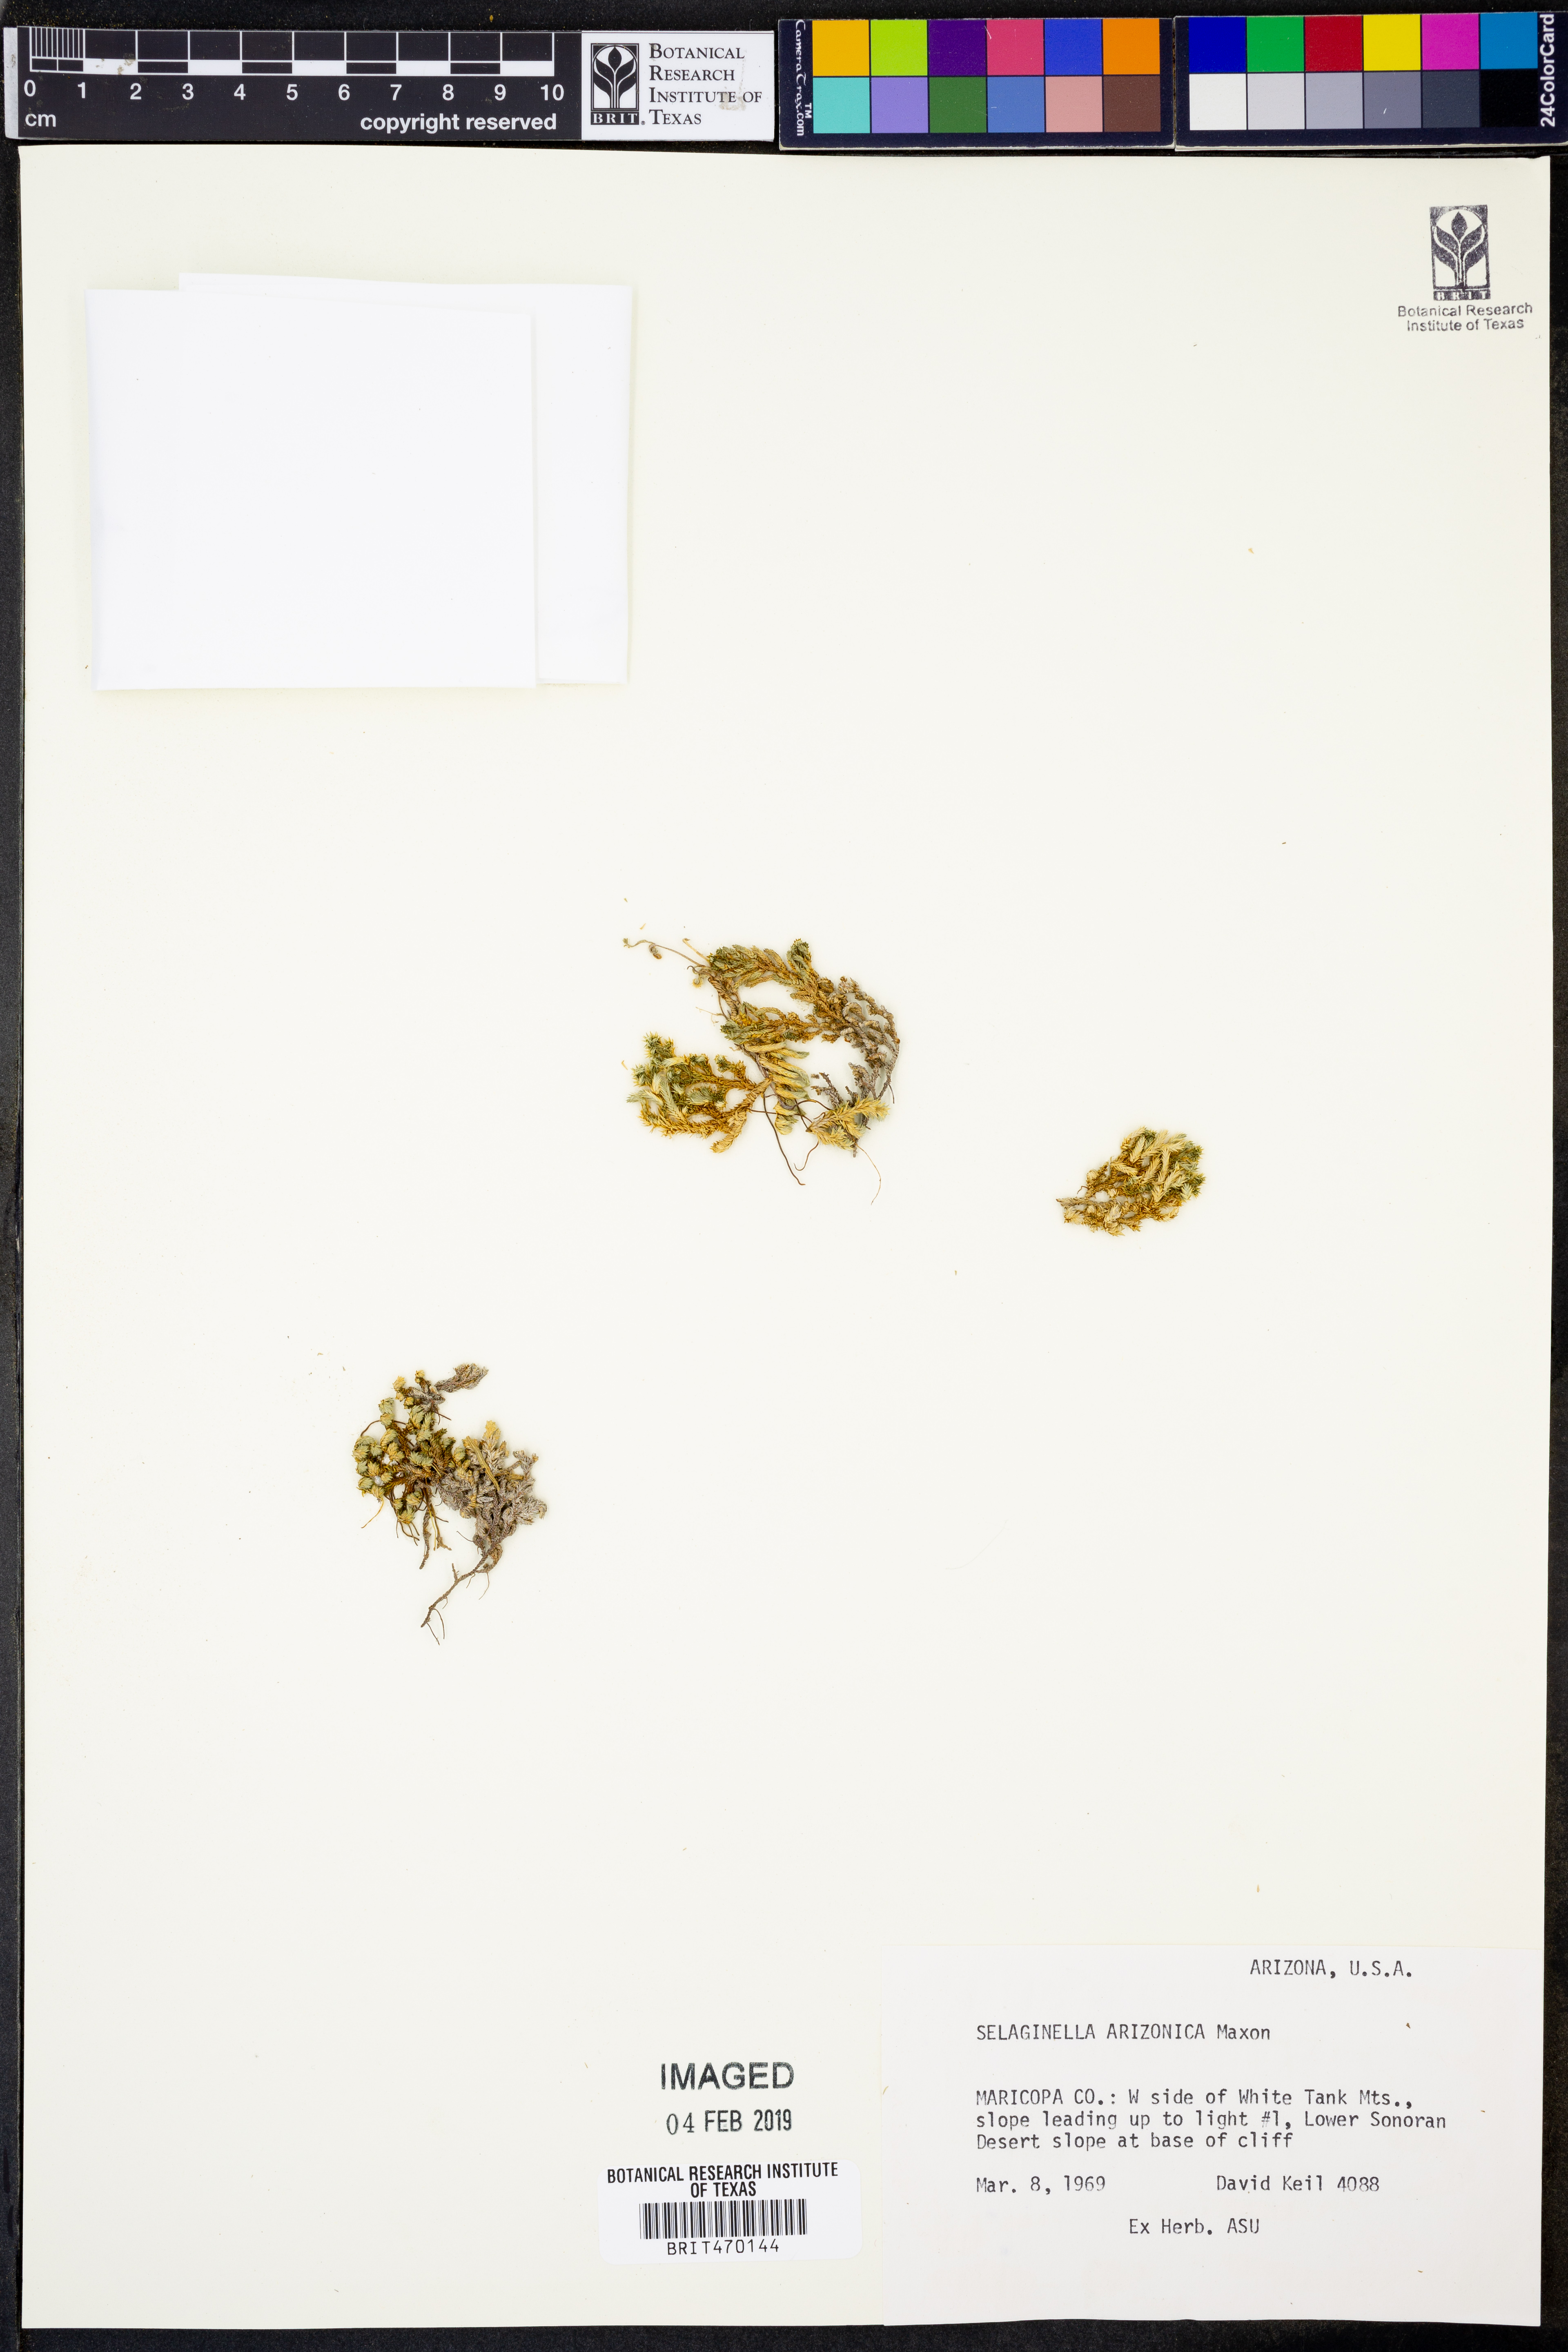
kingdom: Plantae
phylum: Tracheophyta
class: Lycopodiopsida
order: Selaginellales
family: Selaginellaceae
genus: Selaginella
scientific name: Selaginella arizonica
